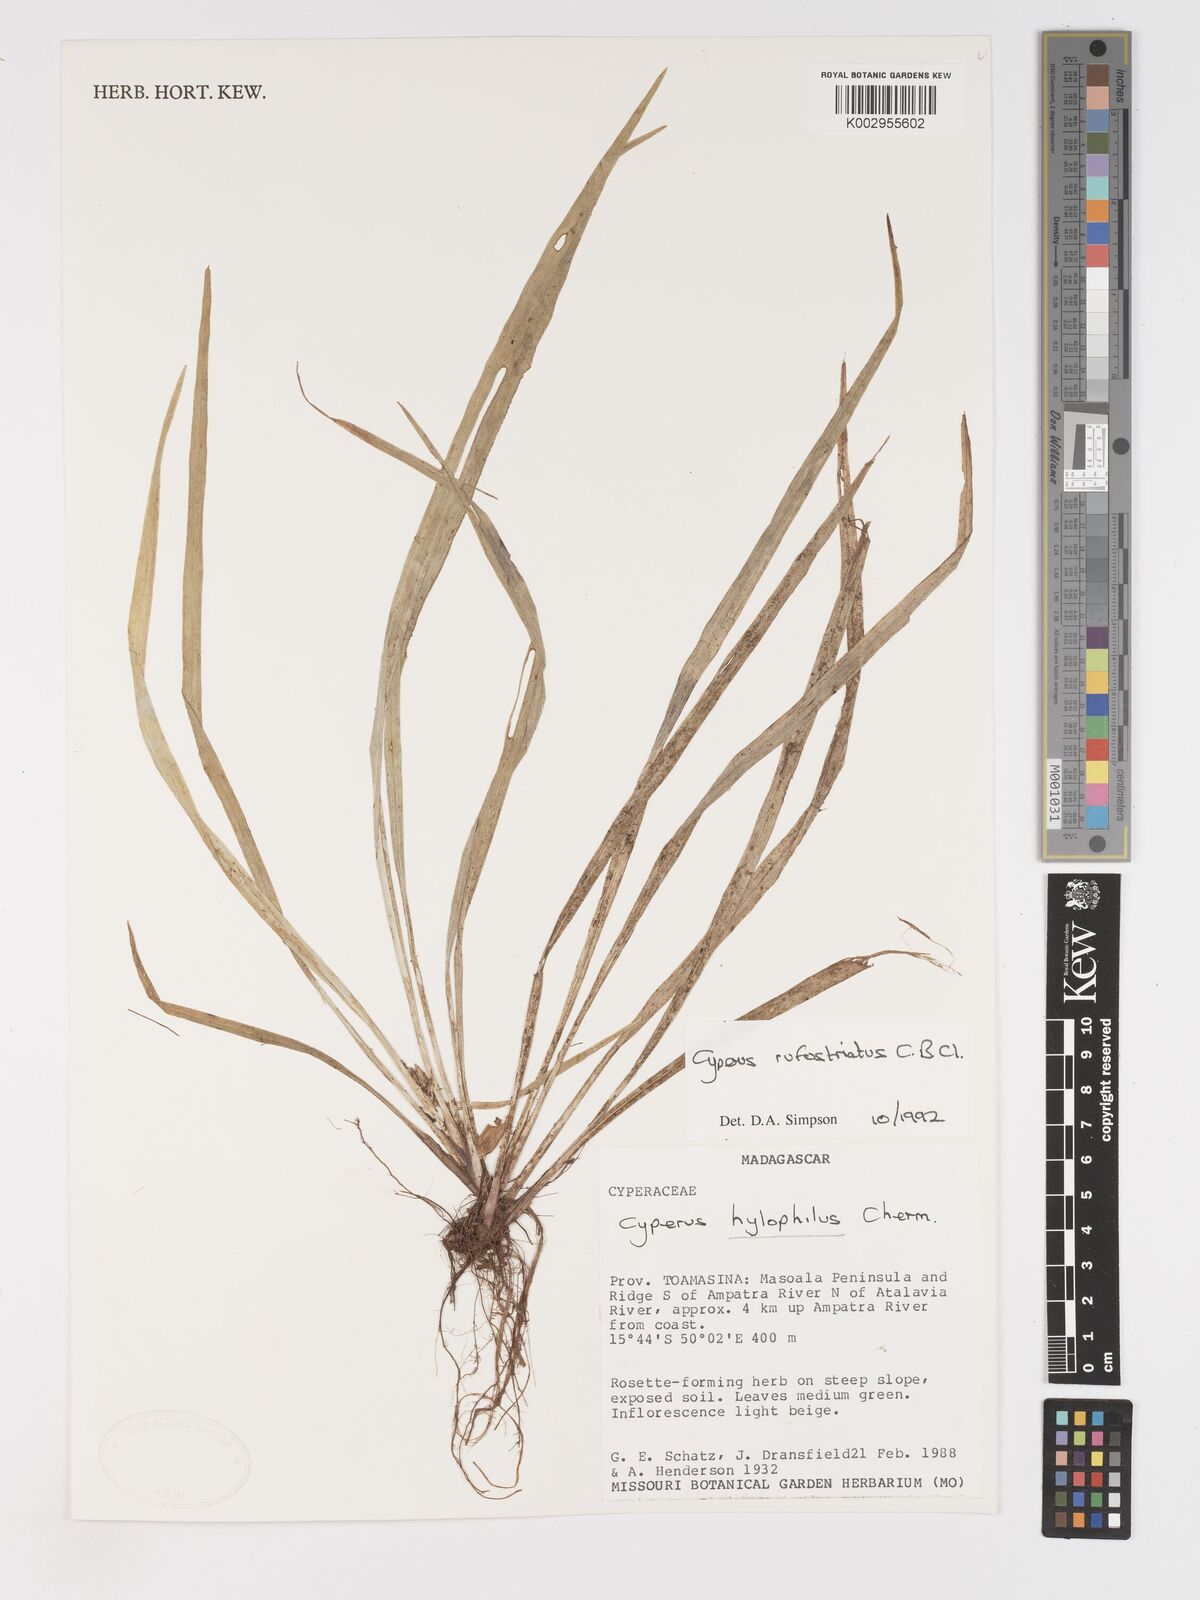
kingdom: Plantae
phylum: Tracheophyta
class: Liliopsida
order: Poales
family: Cyperaceae
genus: Cyperus
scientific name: Cyperus rufostriatus
